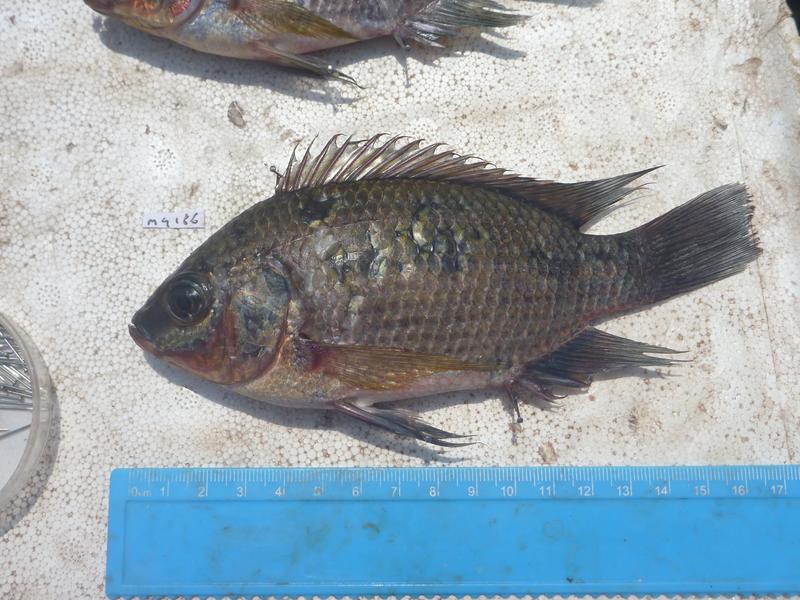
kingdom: Animalia
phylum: Chordata
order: Perciformes
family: Cichlidae
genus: Oreochromis
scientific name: Oreochromis upembae
